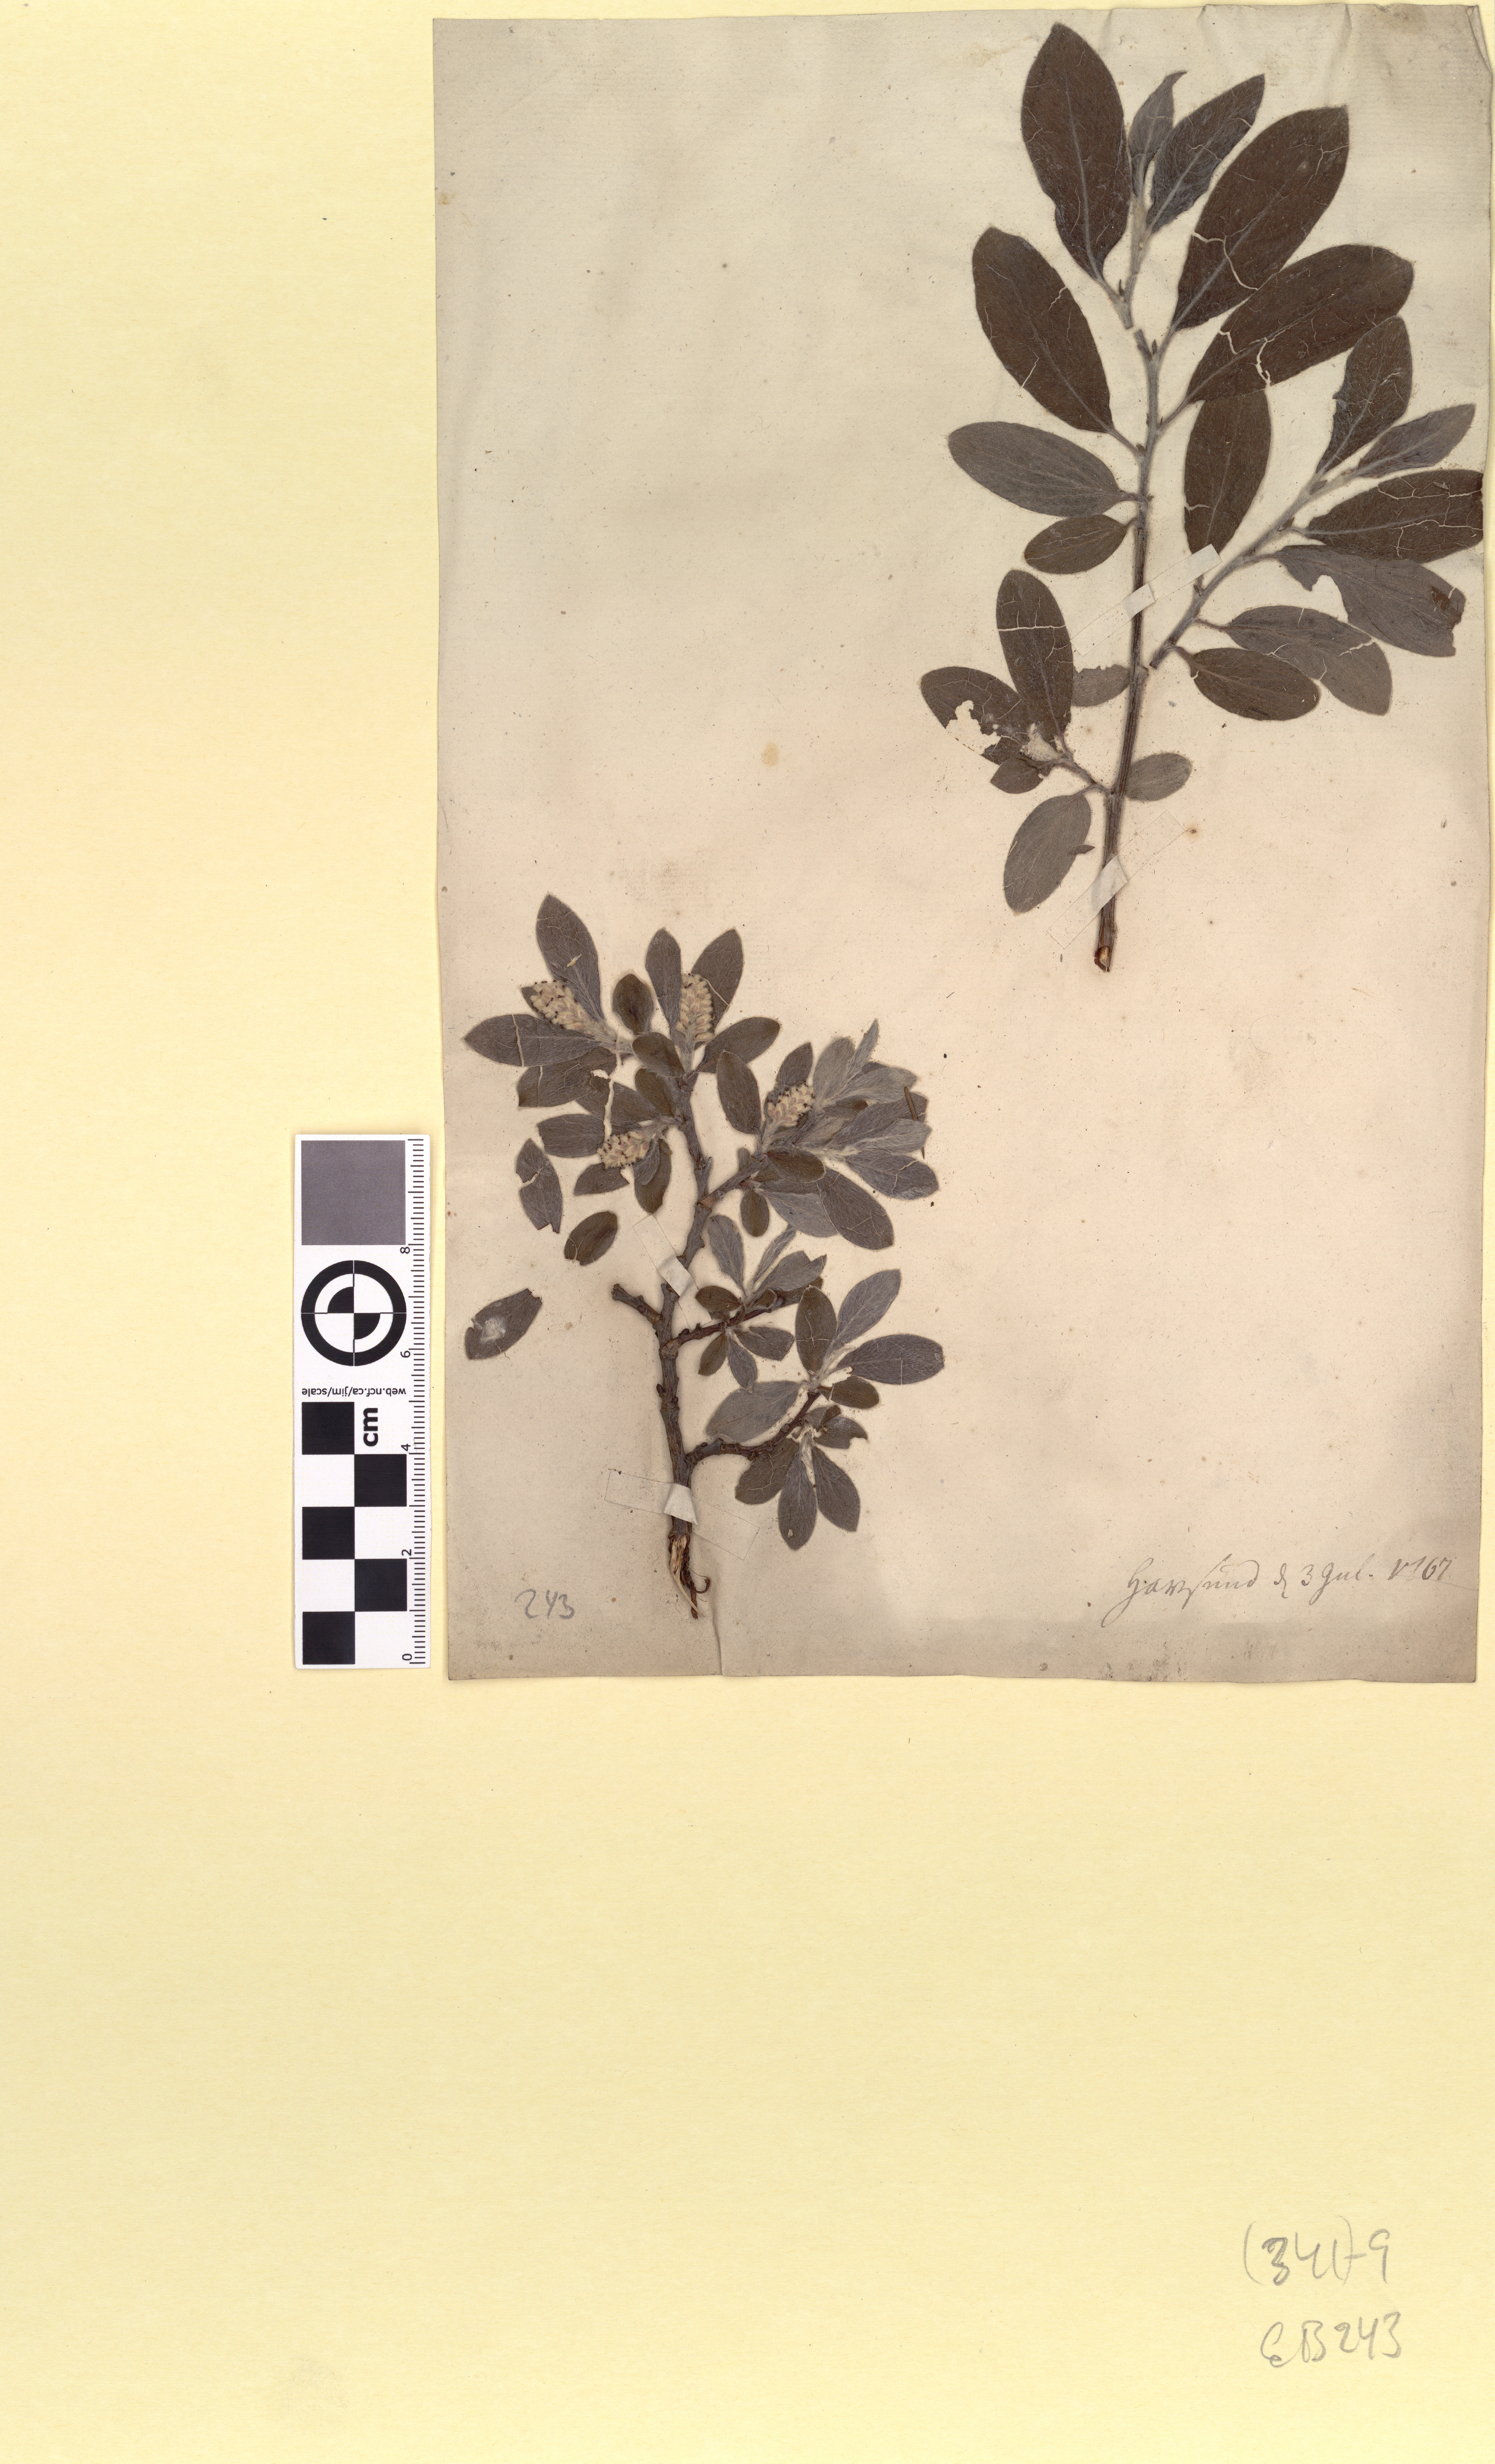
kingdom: Plantae
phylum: Tracheophyta
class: Magnoliopsida
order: Malpighiales
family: Salicaceae
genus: Salix
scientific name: Salix glauca
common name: Glaucous willow
